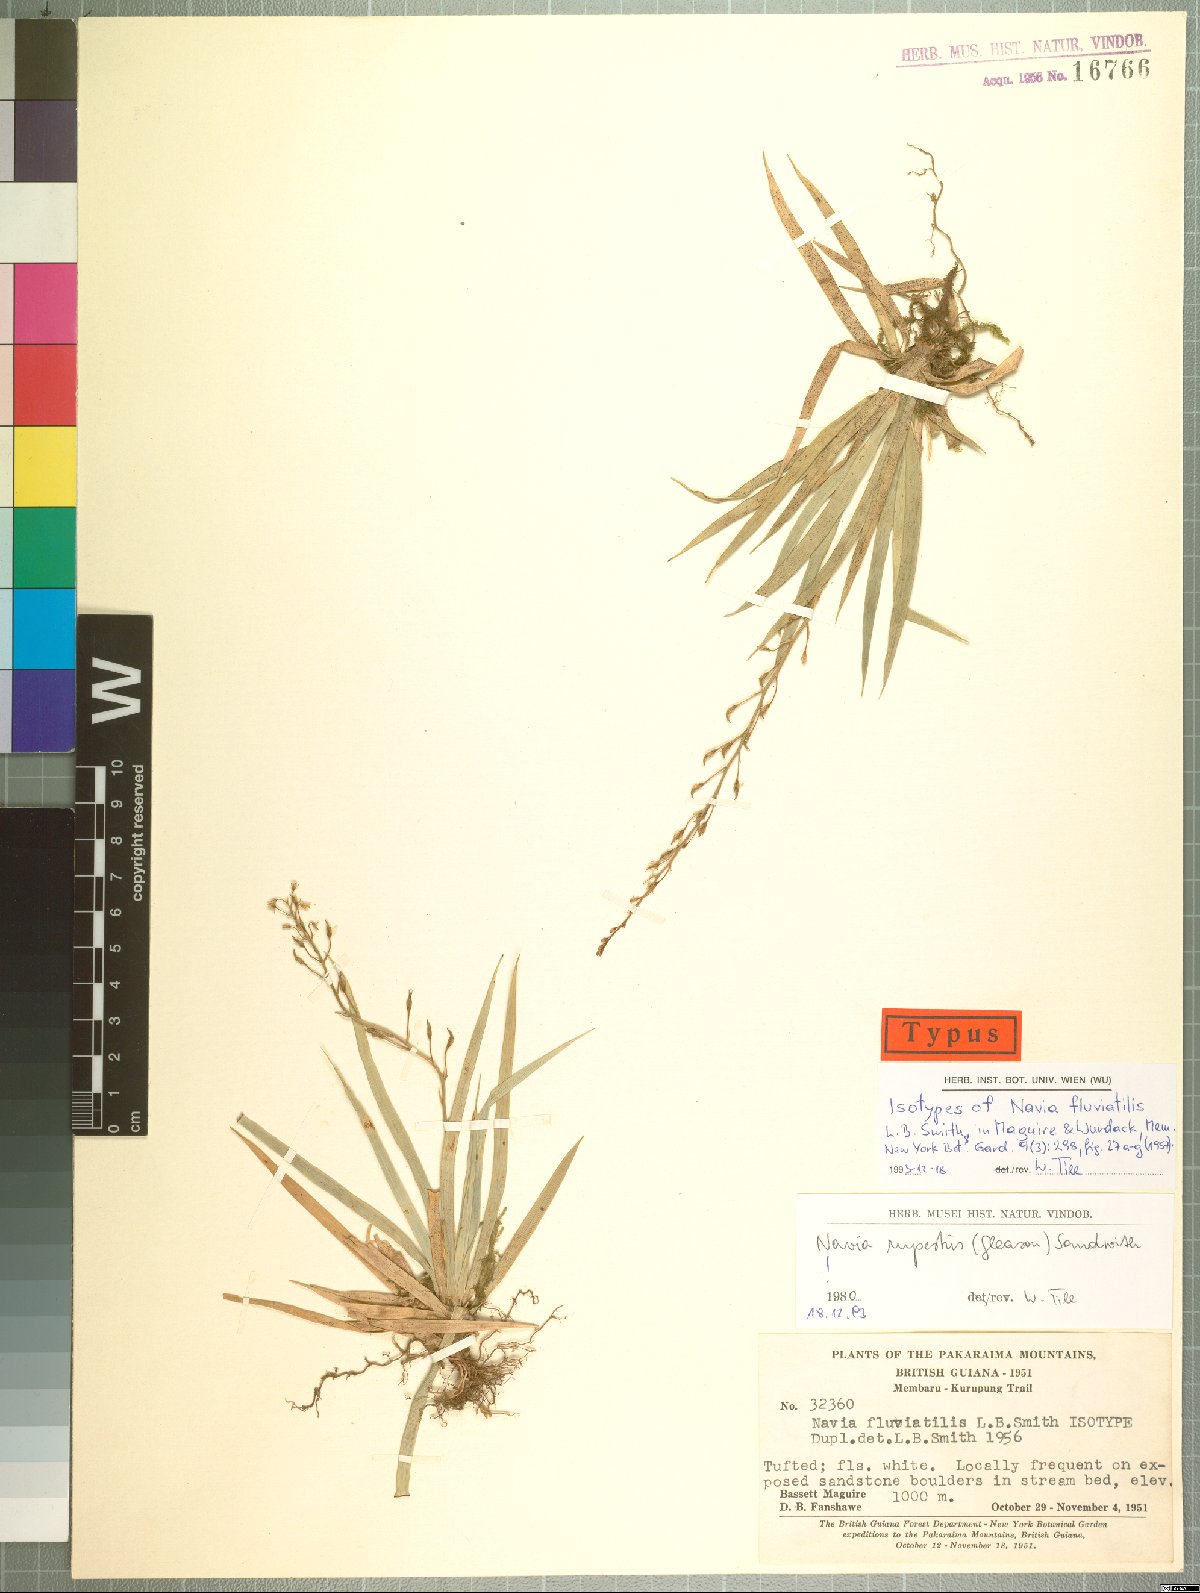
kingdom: Plantae
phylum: Tracheophyta
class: Liliopsida
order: Poales
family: Bromeliaceae
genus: Brocchinia
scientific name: Brocchinia rupestris
